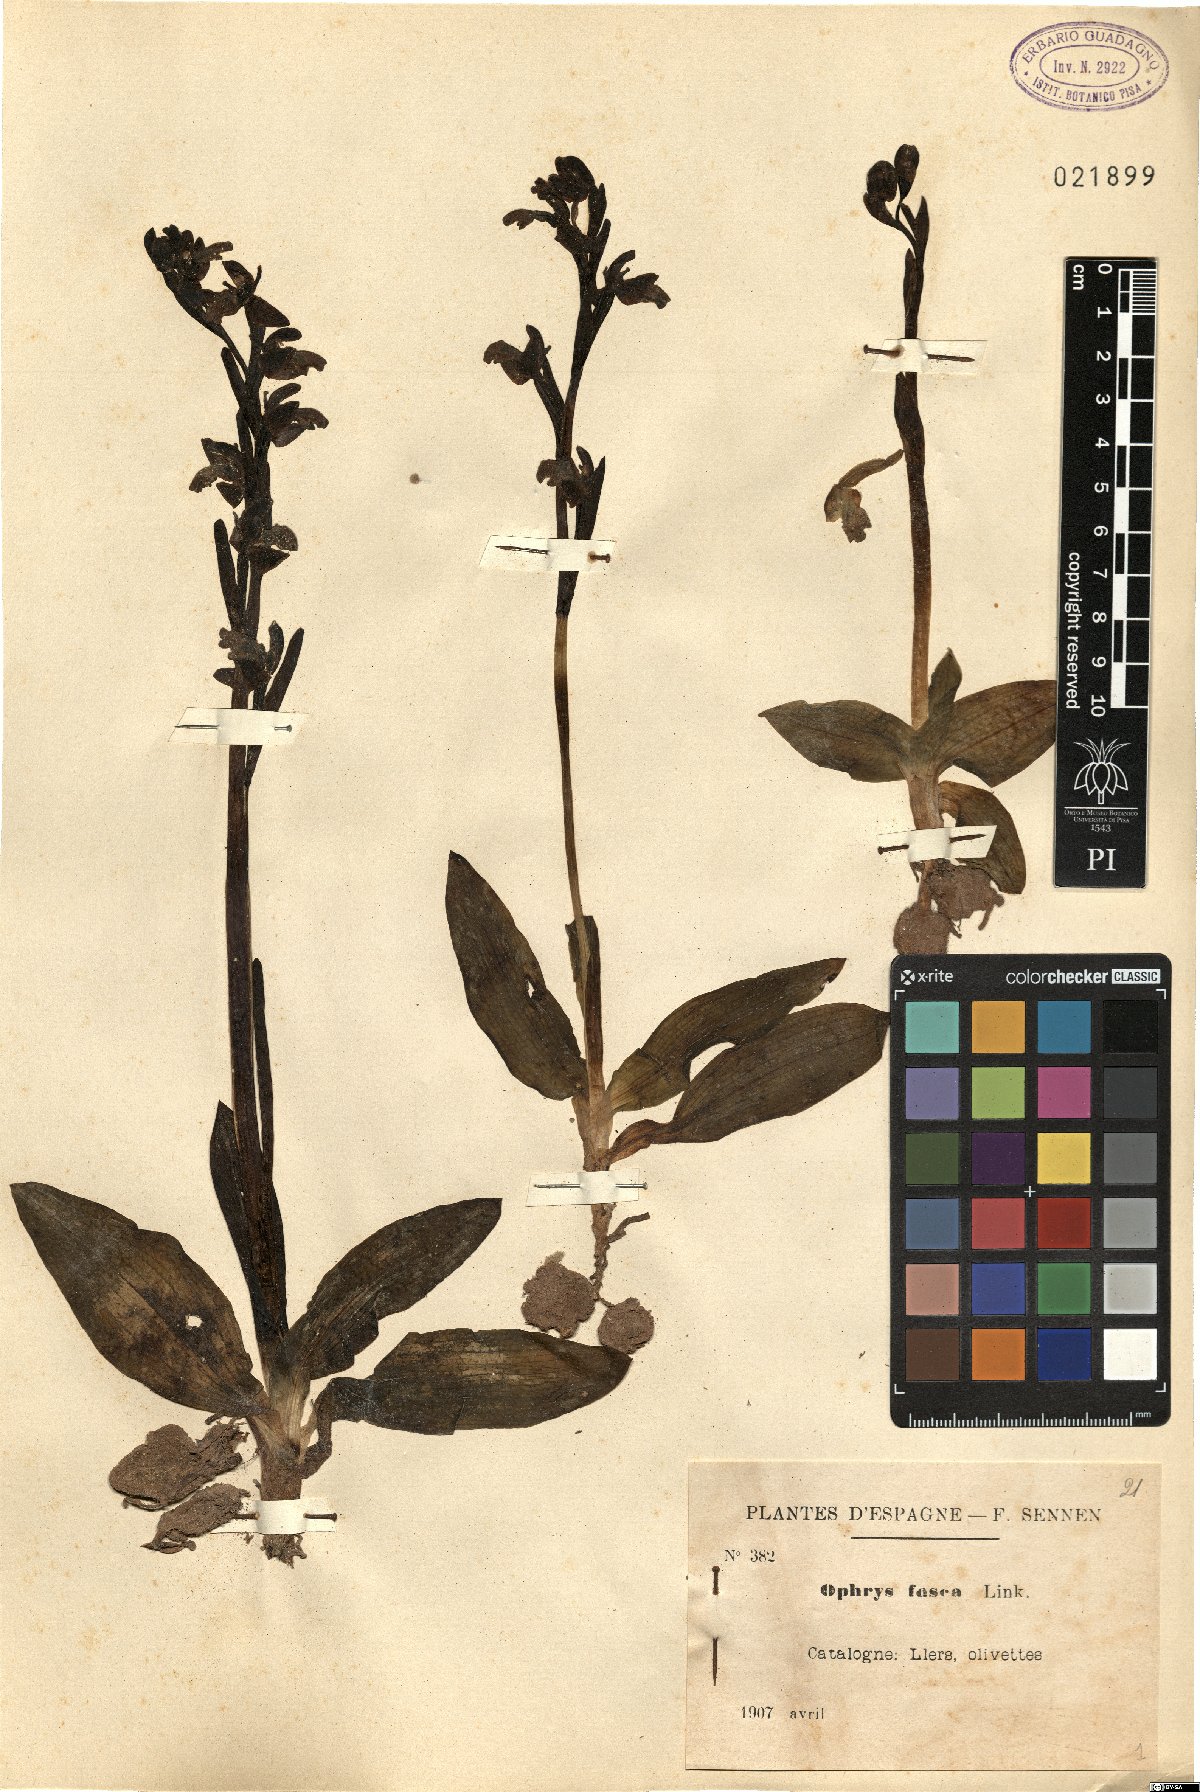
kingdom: Plantae
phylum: Tracheophyta
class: Liliopsida
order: Asparagales
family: Orchidaceae
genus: Ophrys
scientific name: Ophrys fusca
